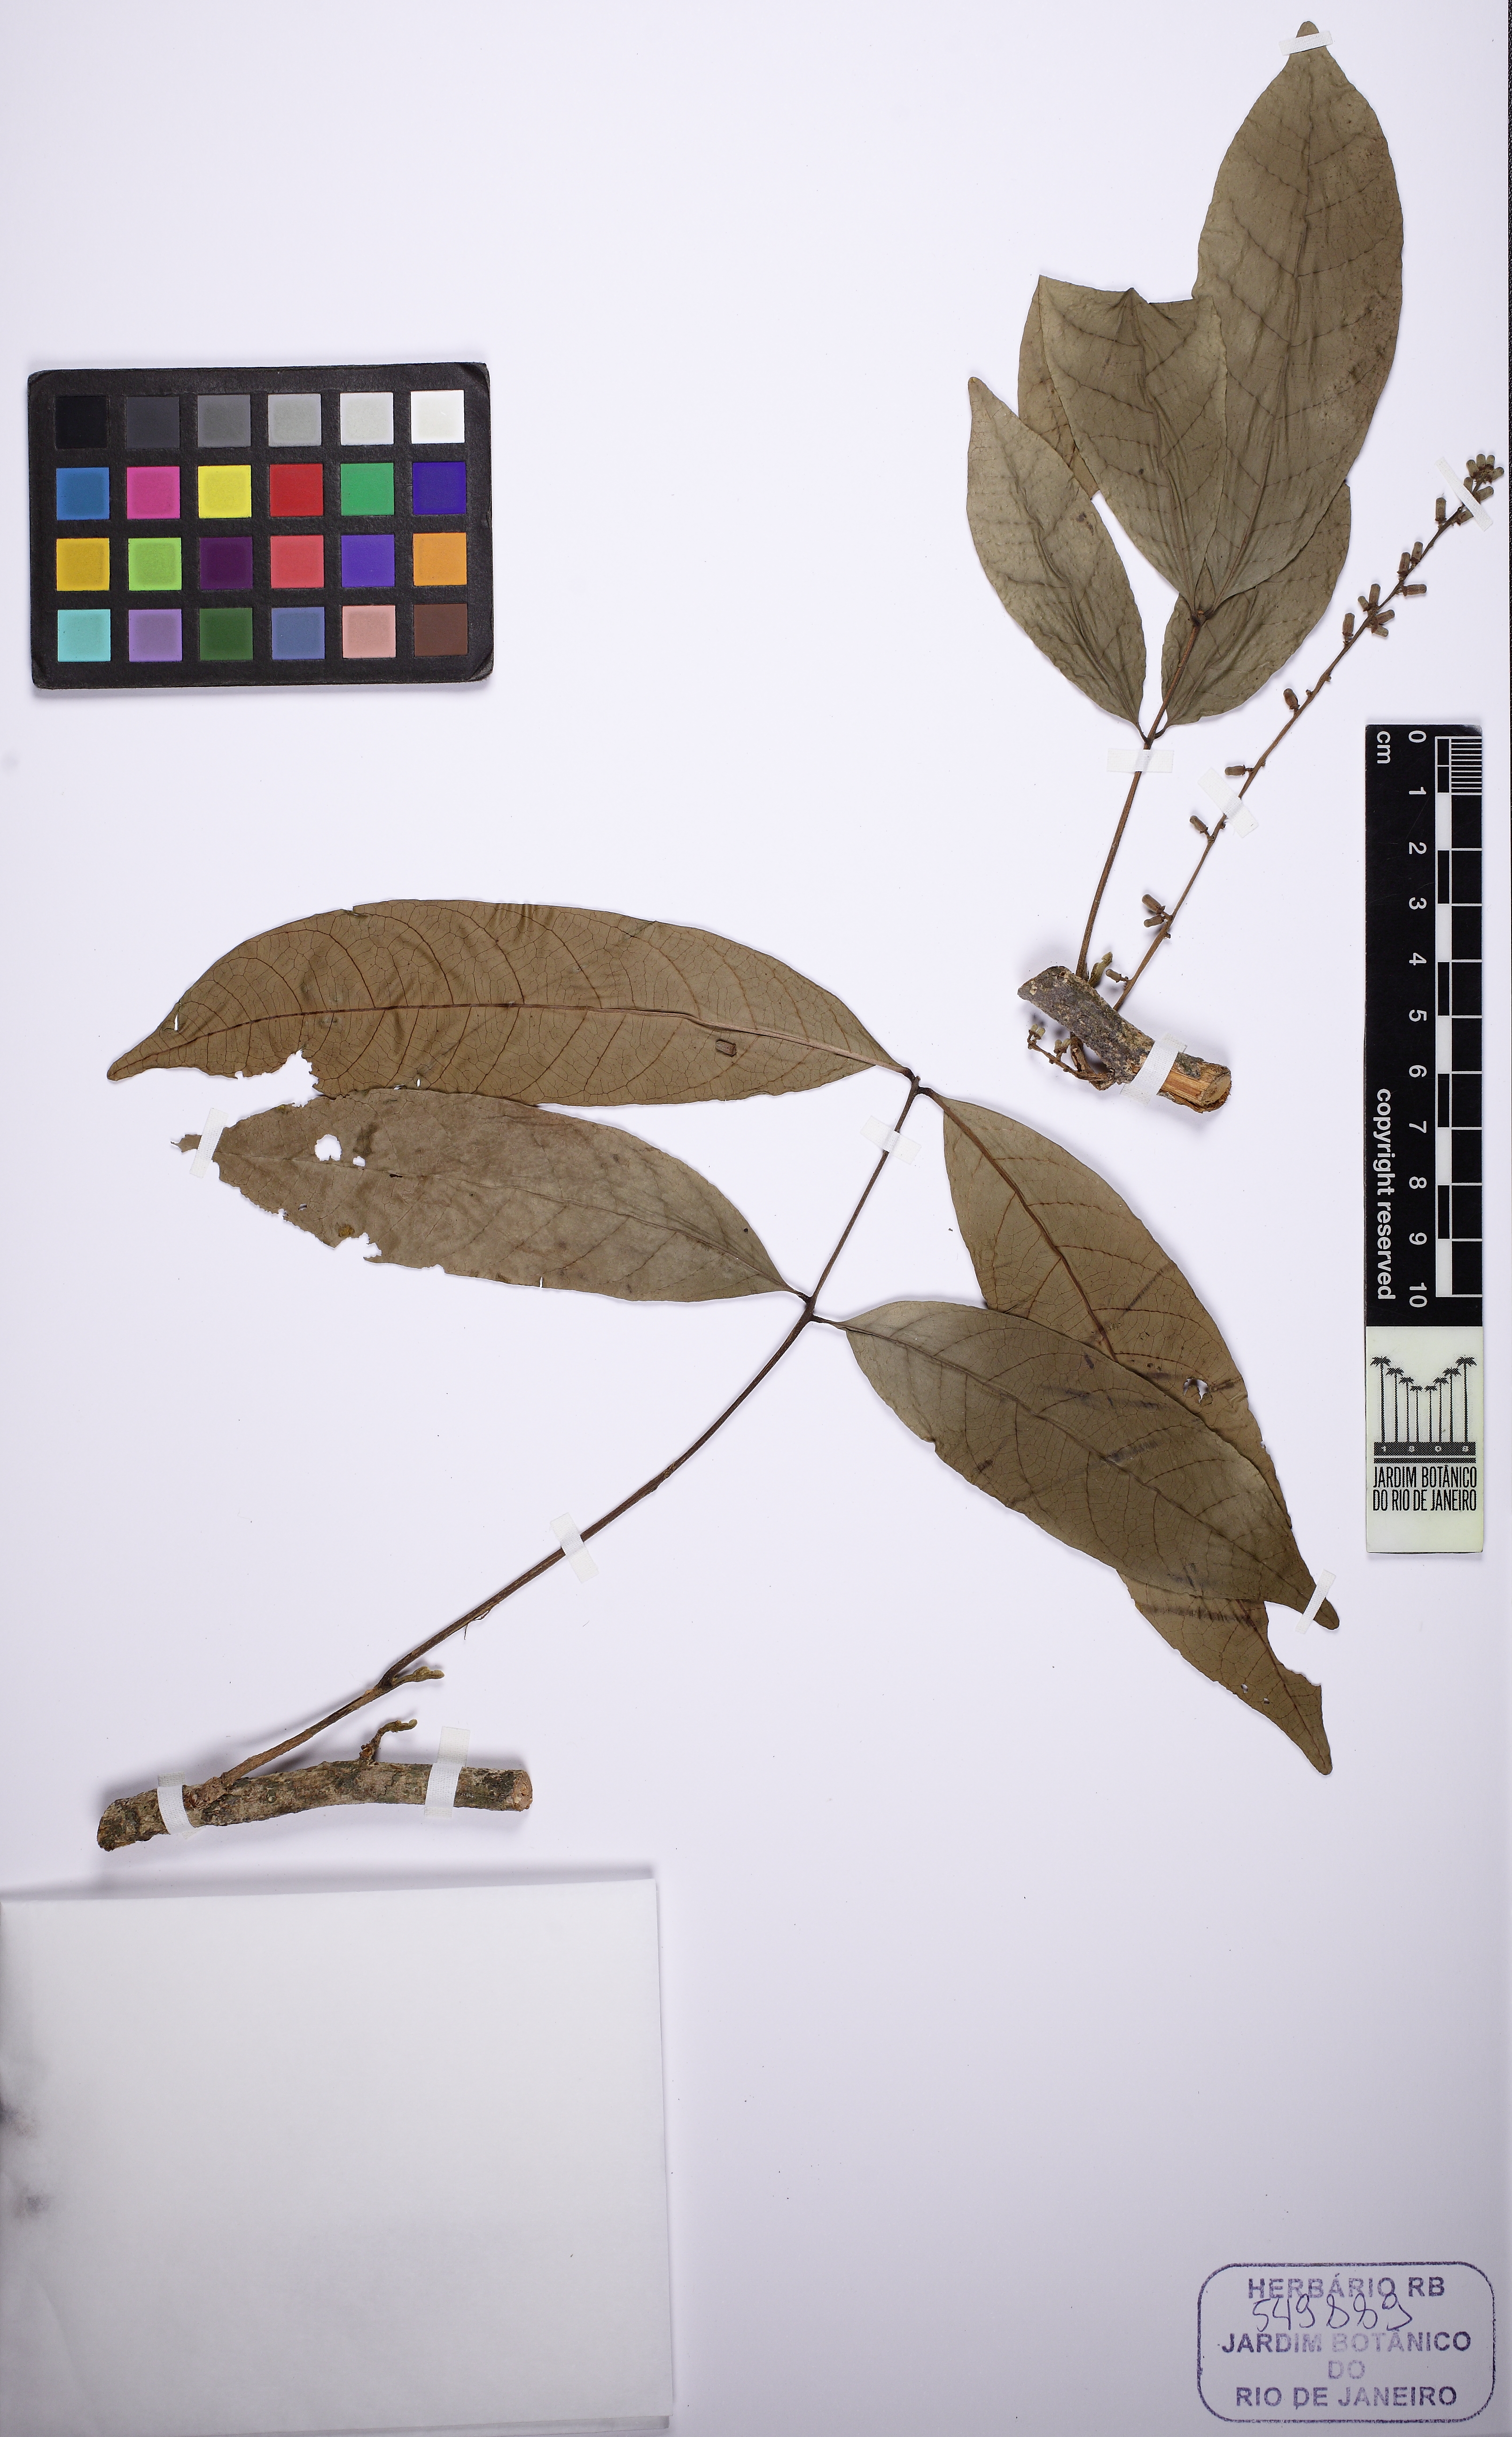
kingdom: Plantae
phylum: Tracheophyta
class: Magnoliopsida
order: Sapindales
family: Meliaceae
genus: Guarea
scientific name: Guarea kunthiana
